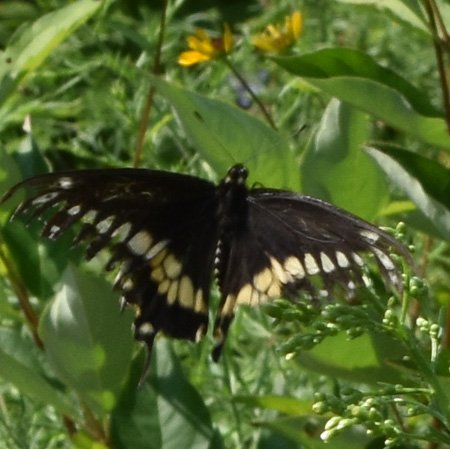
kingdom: Animalia
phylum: Arthropoda
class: Insecta
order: Lepidoptera
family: Papilionidae
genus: Papilio
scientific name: Papilio polyxenes
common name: Black Swallowtail
